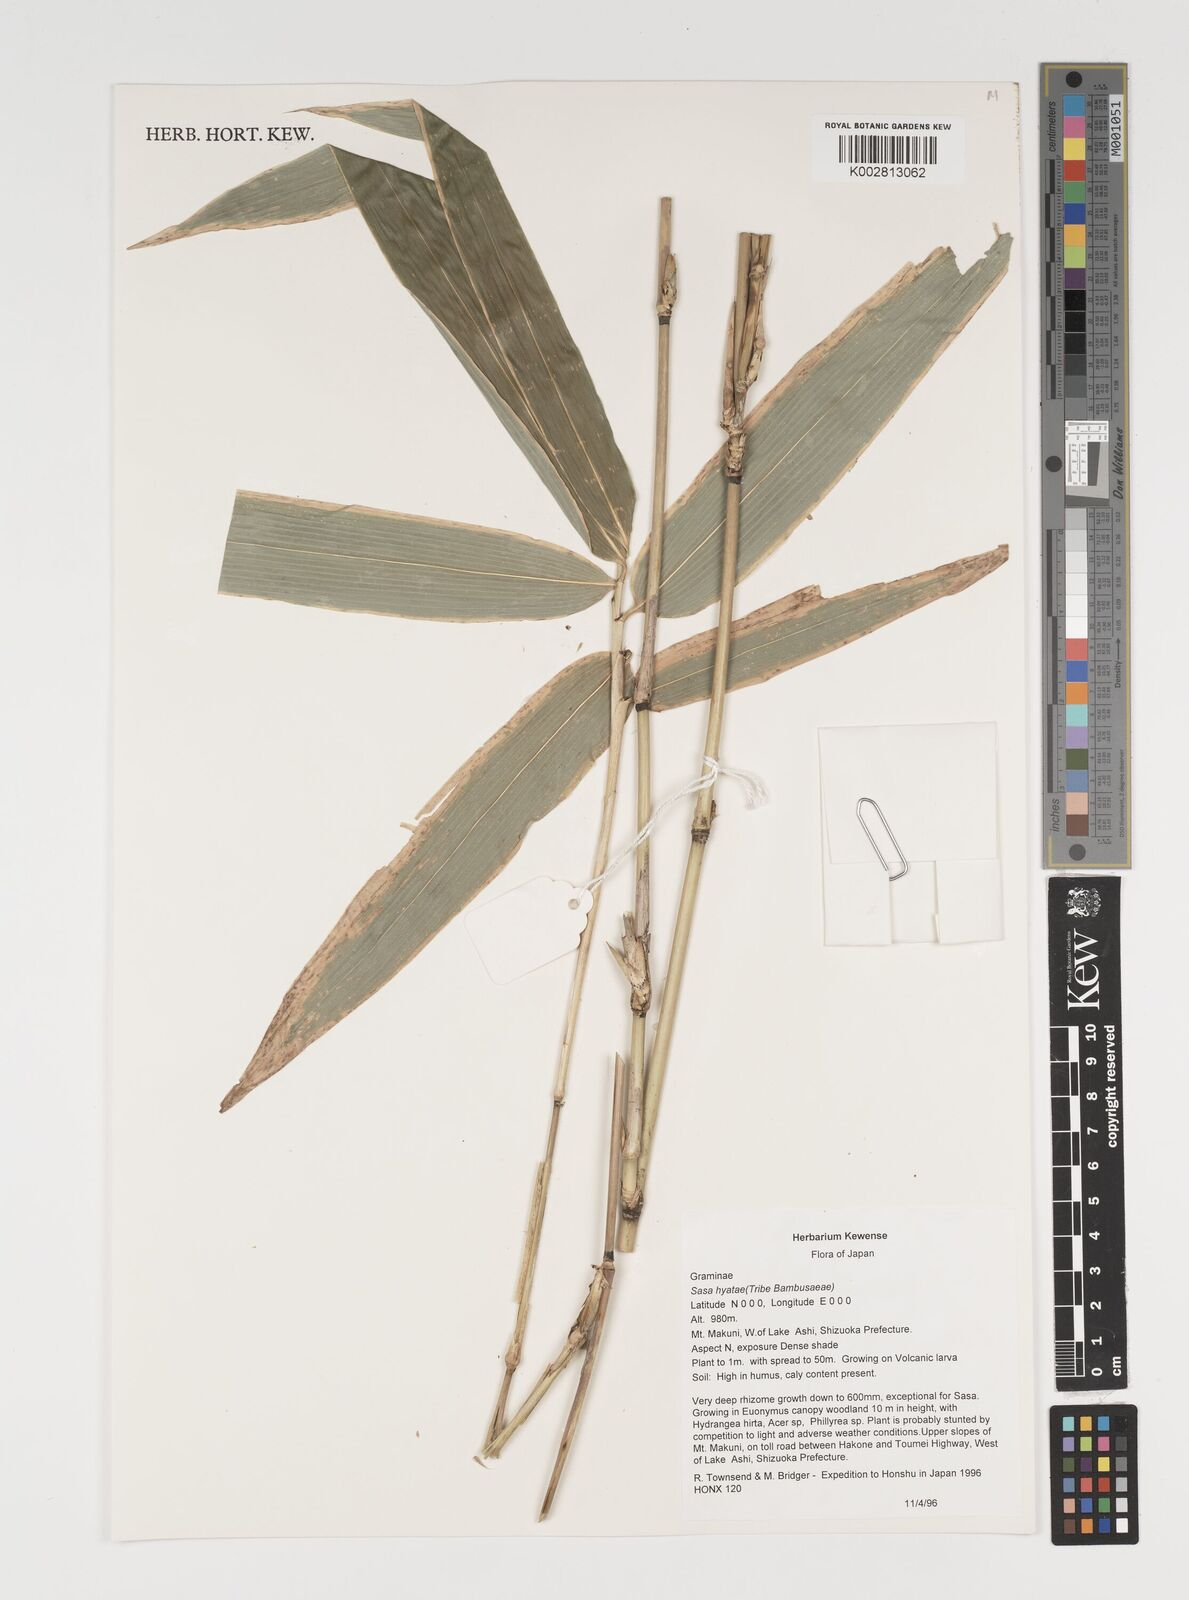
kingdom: Plantae
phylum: Tracheophyta
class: Liliopsida
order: Poales
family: Poaceae
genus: Sasa
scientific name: Sasa hayatae
